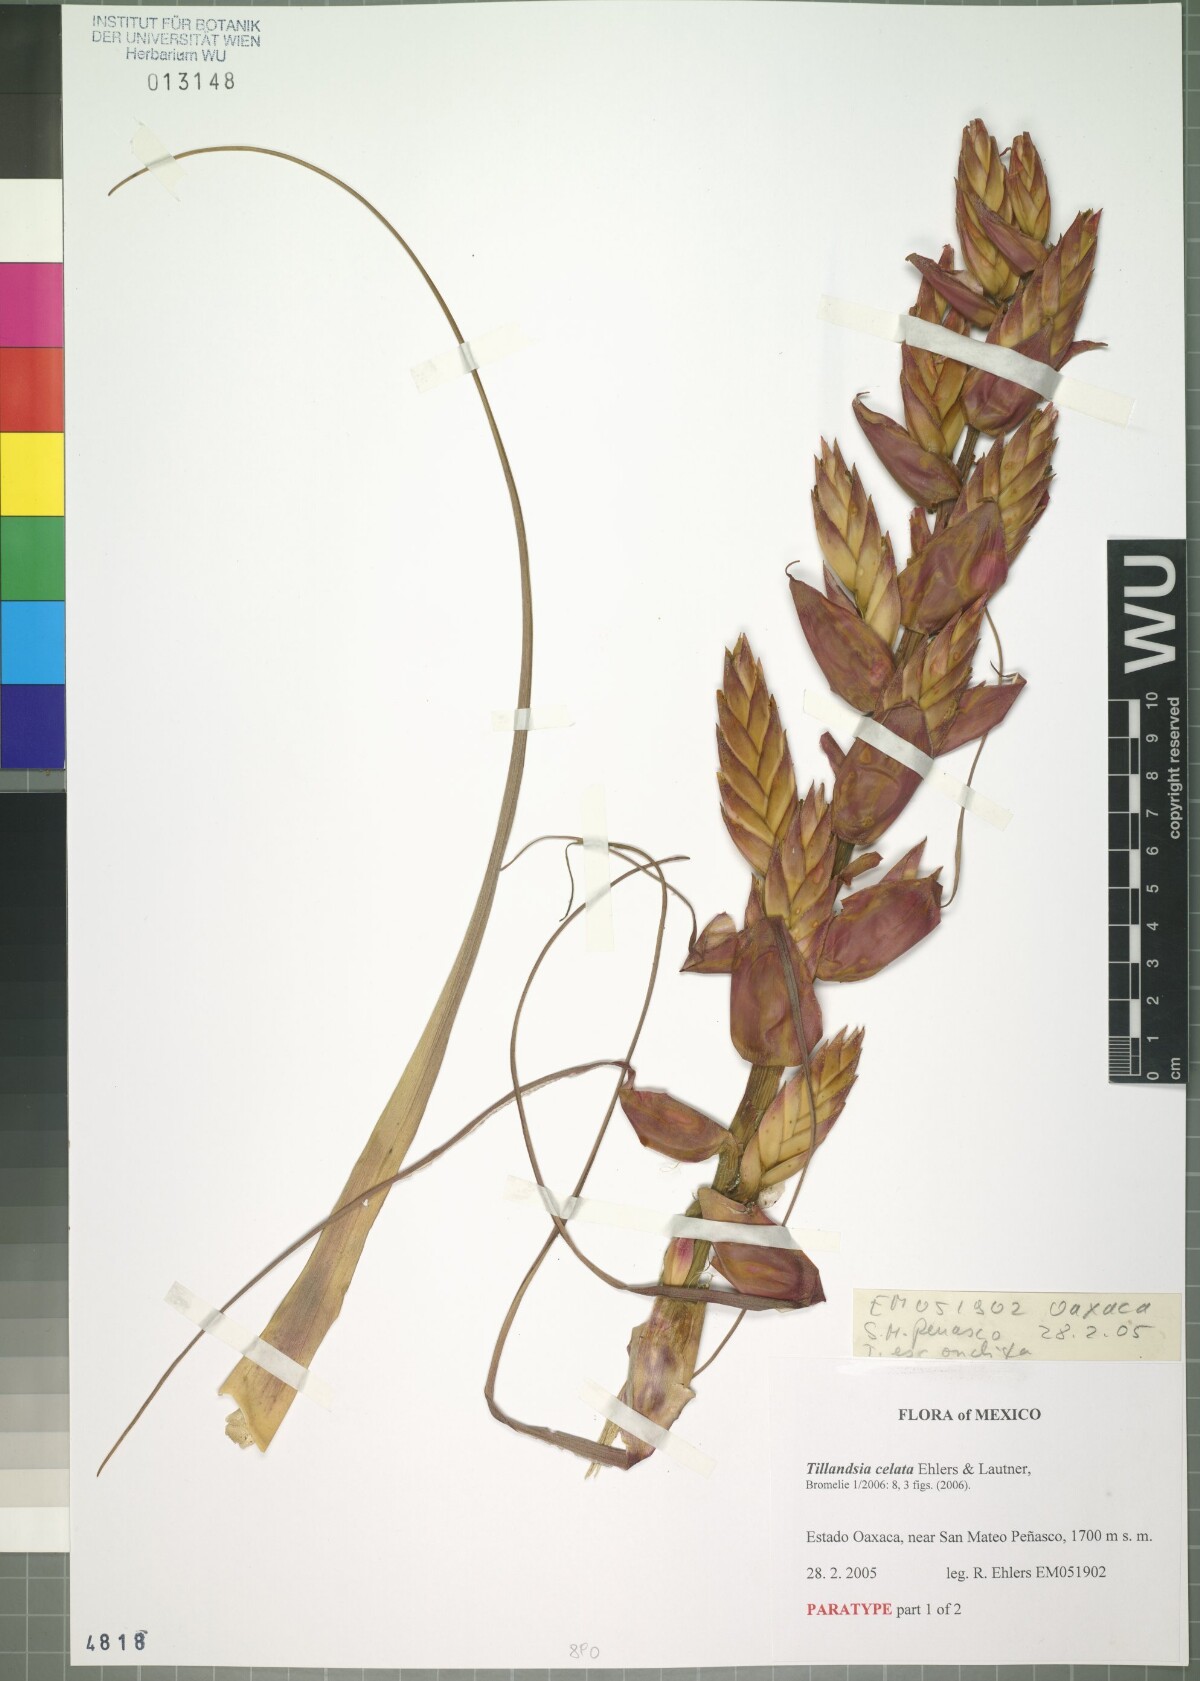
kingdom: Plantae
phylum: Tracheophyta
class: Liliopsida
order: Poales
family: Bromeliaceae
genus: Tillandsia
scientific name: Tillandsia celata
